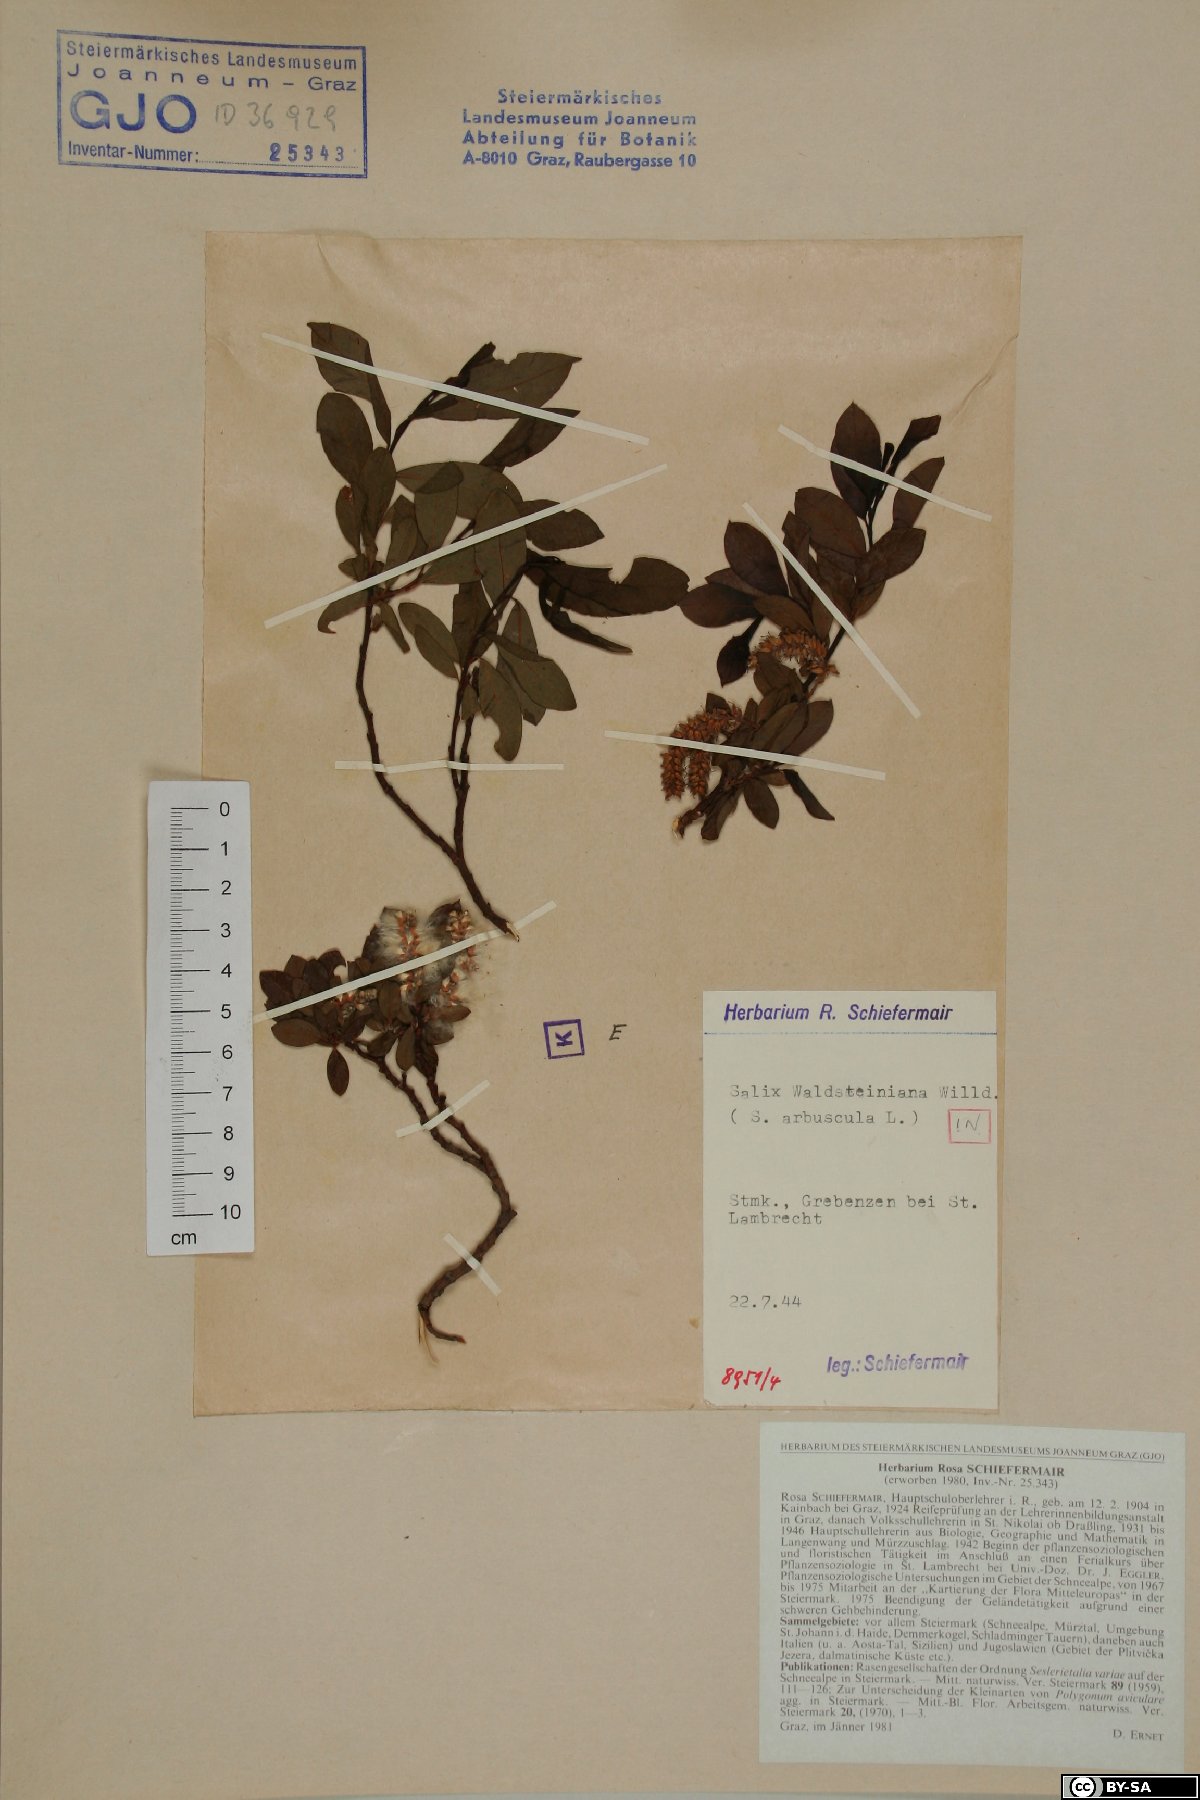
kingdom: Plantae
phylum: Tracheophyta
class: Magnoliopsida
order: Malpighiales
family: Salicaceae
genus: Salix
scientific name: Salix waldsteiniana
